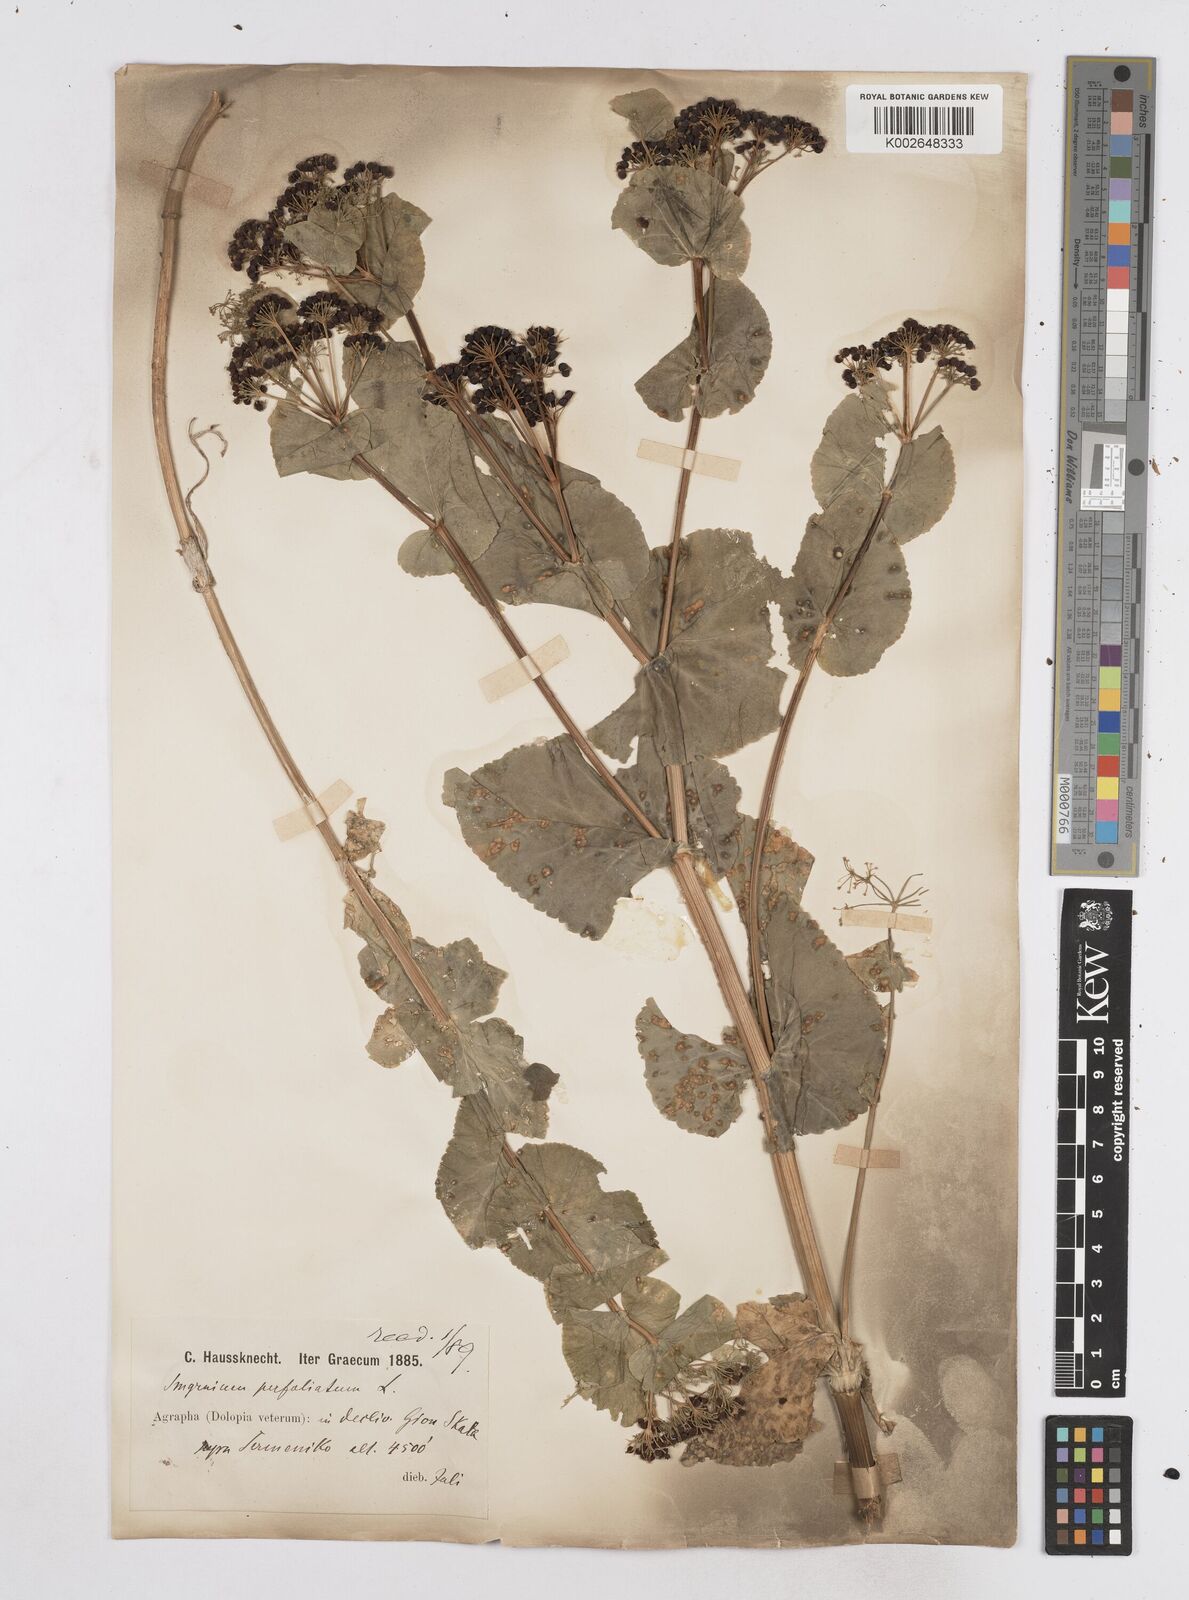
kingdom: Plantae
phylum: Tracheophyta
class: Magnoliopsida
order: Apiales
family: Apiaceae
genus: Smyrnium
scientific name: Smyrnium perfoliatum
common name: Perfoliate alexanders
